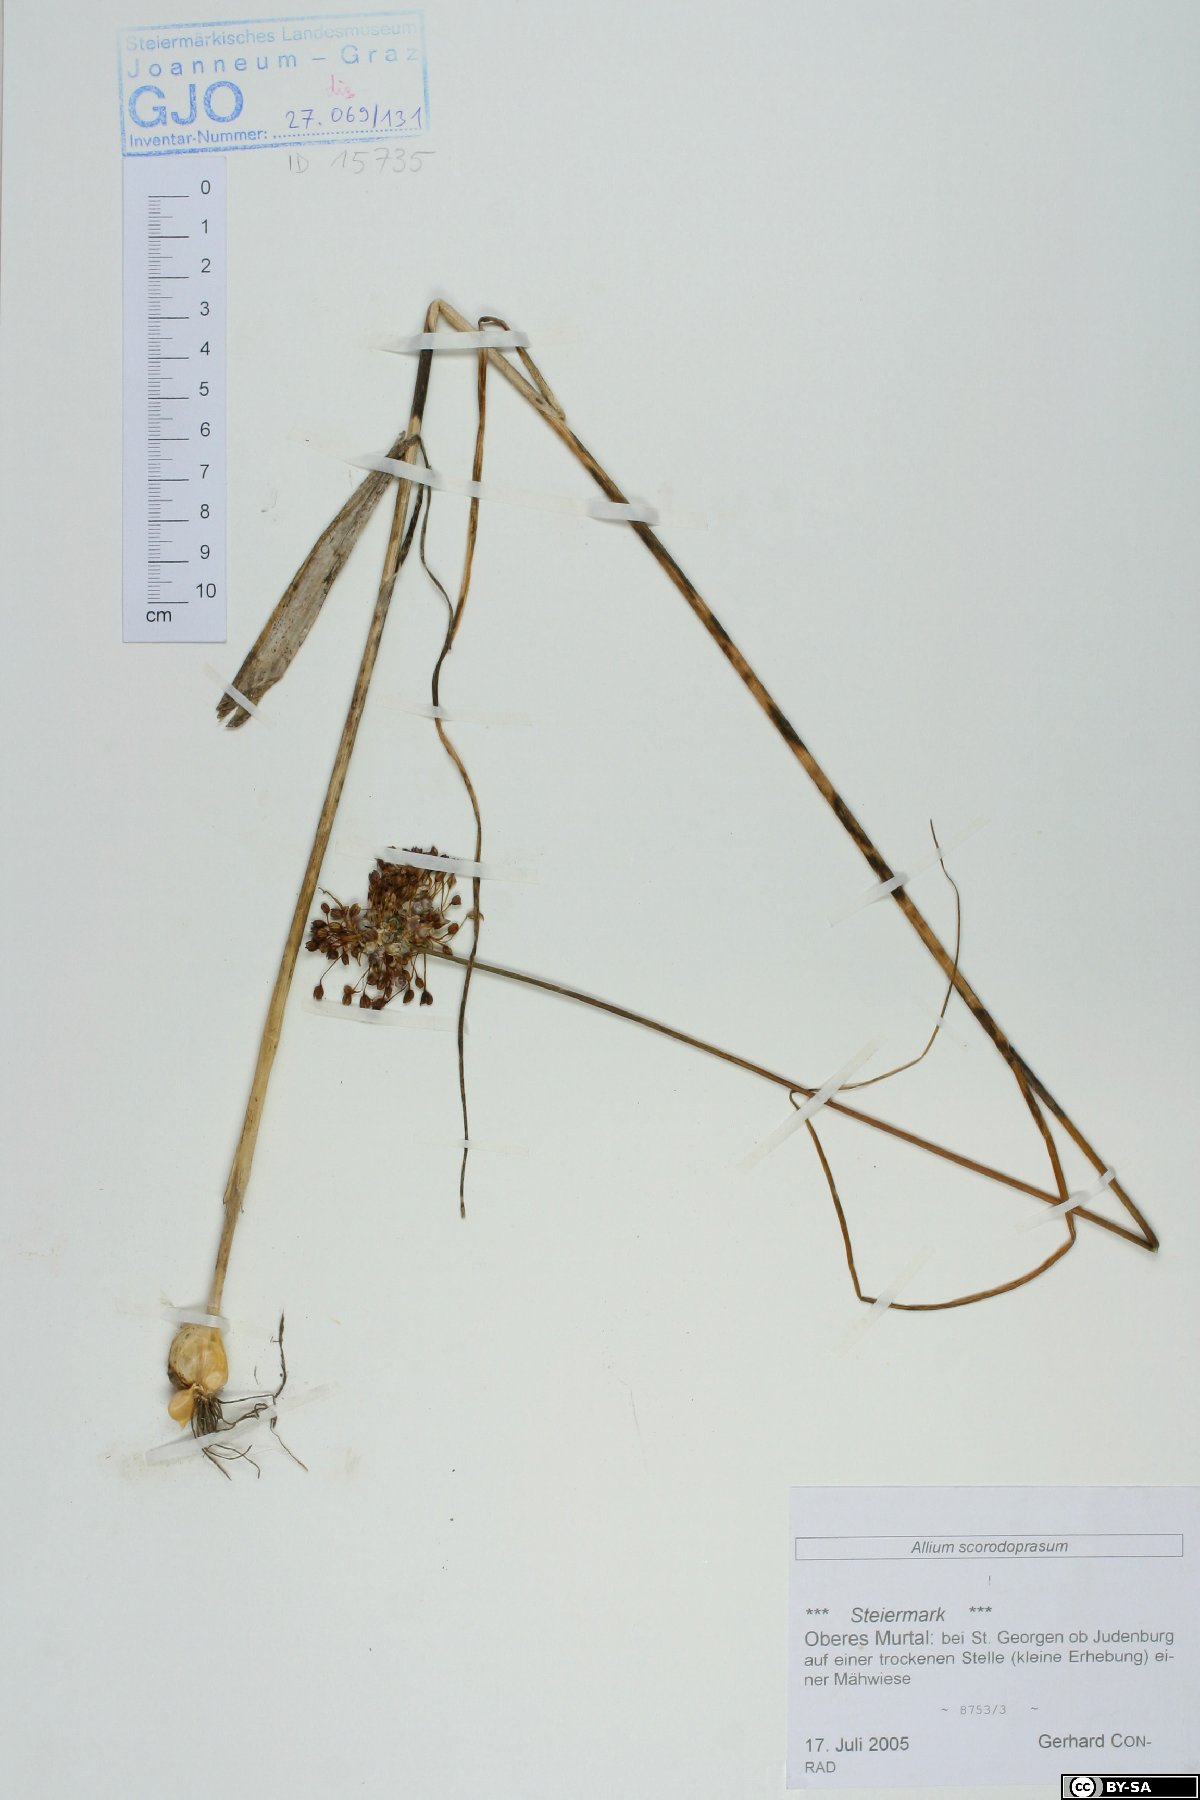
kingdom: Plantae
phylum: Tracheophyta
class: Liliopsida
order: Asparagales
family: Amaryllidaceae
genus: Allium
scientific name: Allium scorodoprasum
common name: Sand leek
